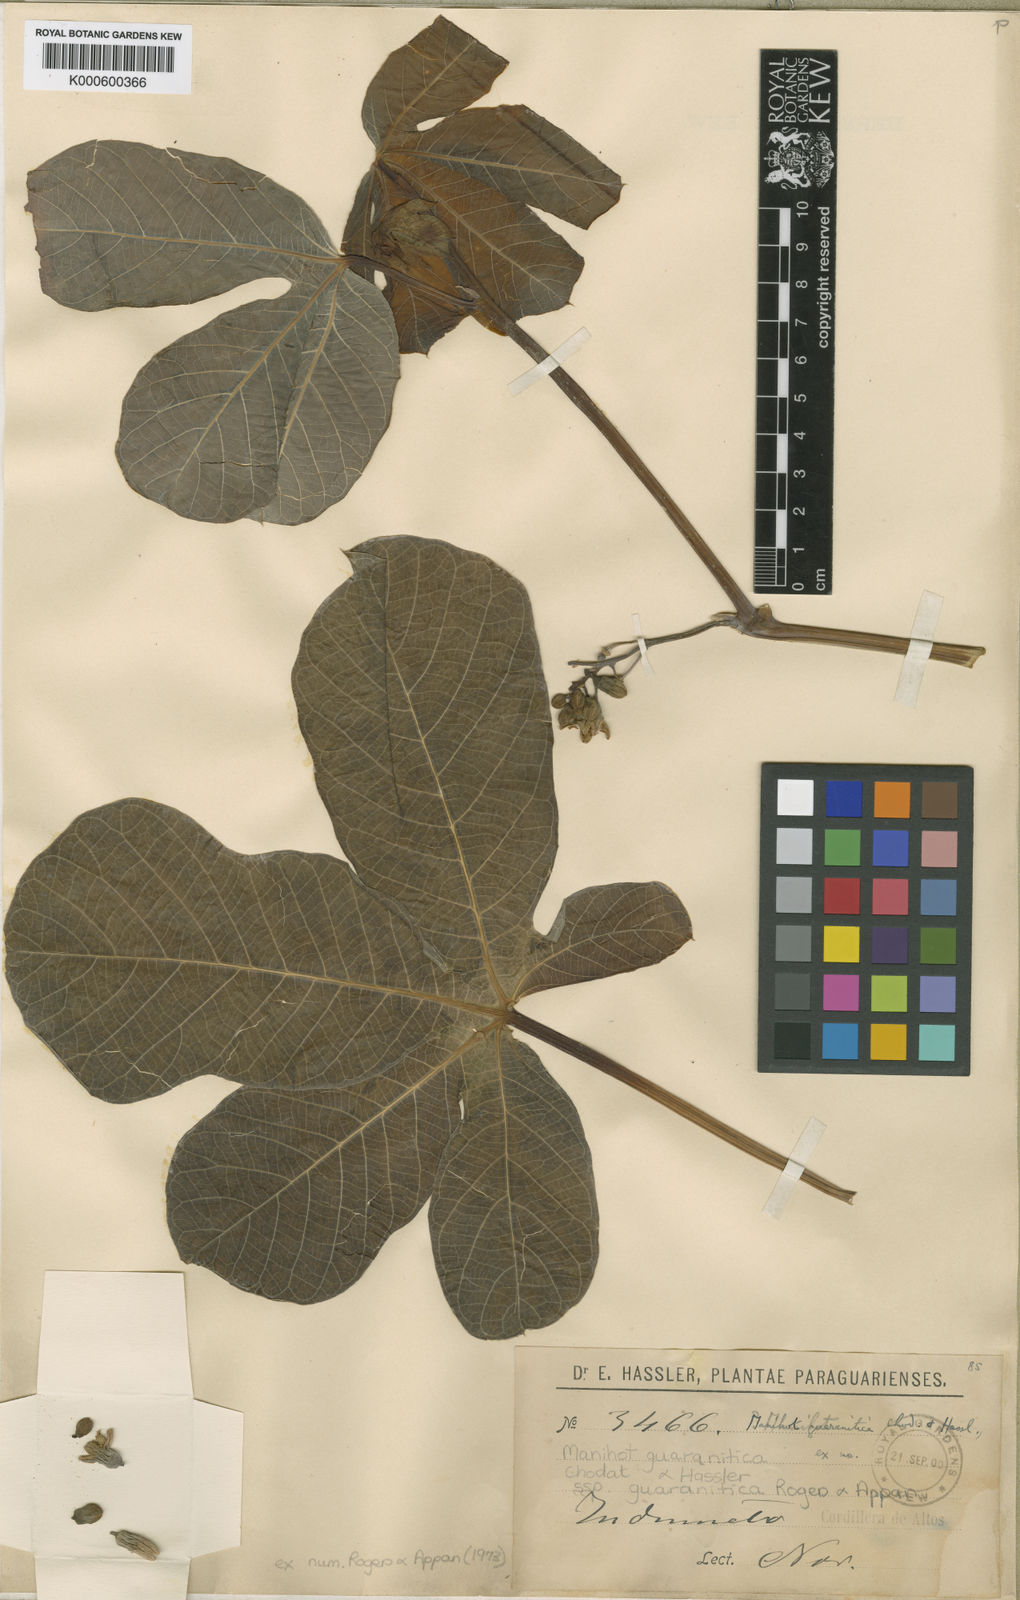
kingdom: Plantae
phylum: Tracheophyta
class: Magnoliopsida
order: Malpighiales
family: Euphorbiaceae
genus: Manihot
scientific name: Manihot guaranitica
